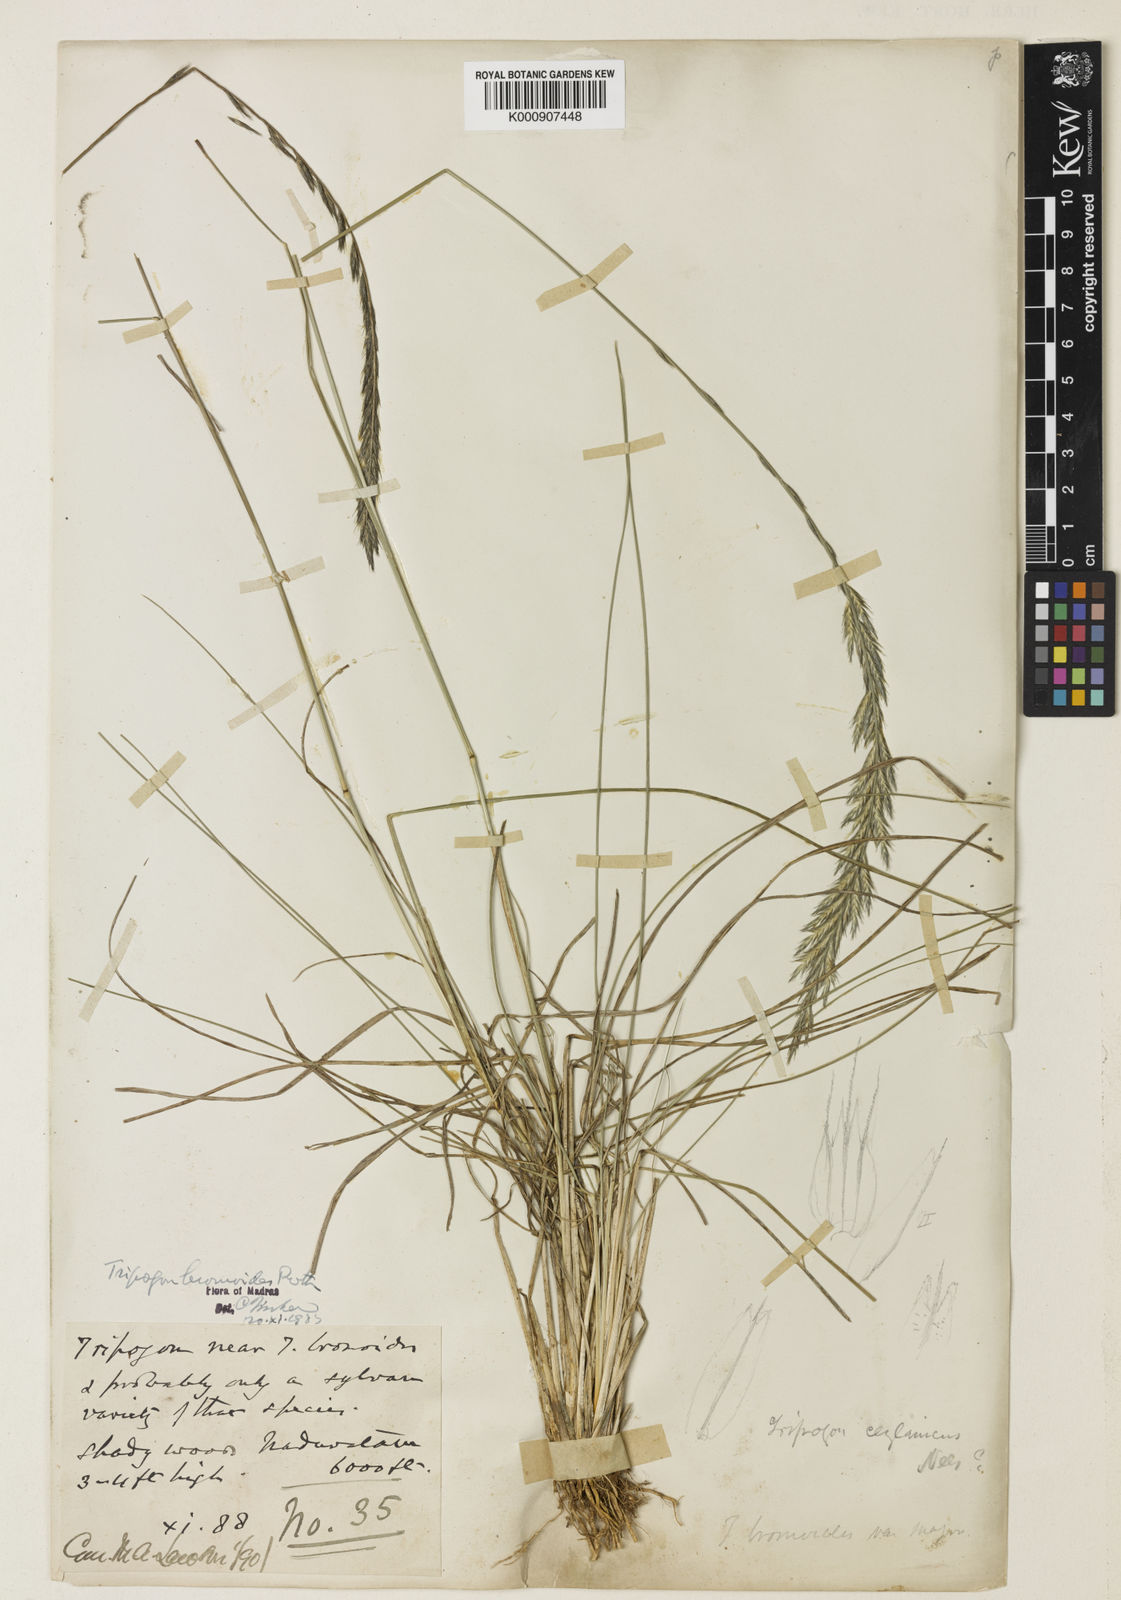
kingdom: Plantae
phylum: Tracheophyta
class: Liliopsida
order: Poales
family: Poaceae
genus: Tripogon
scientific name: Tripogon
